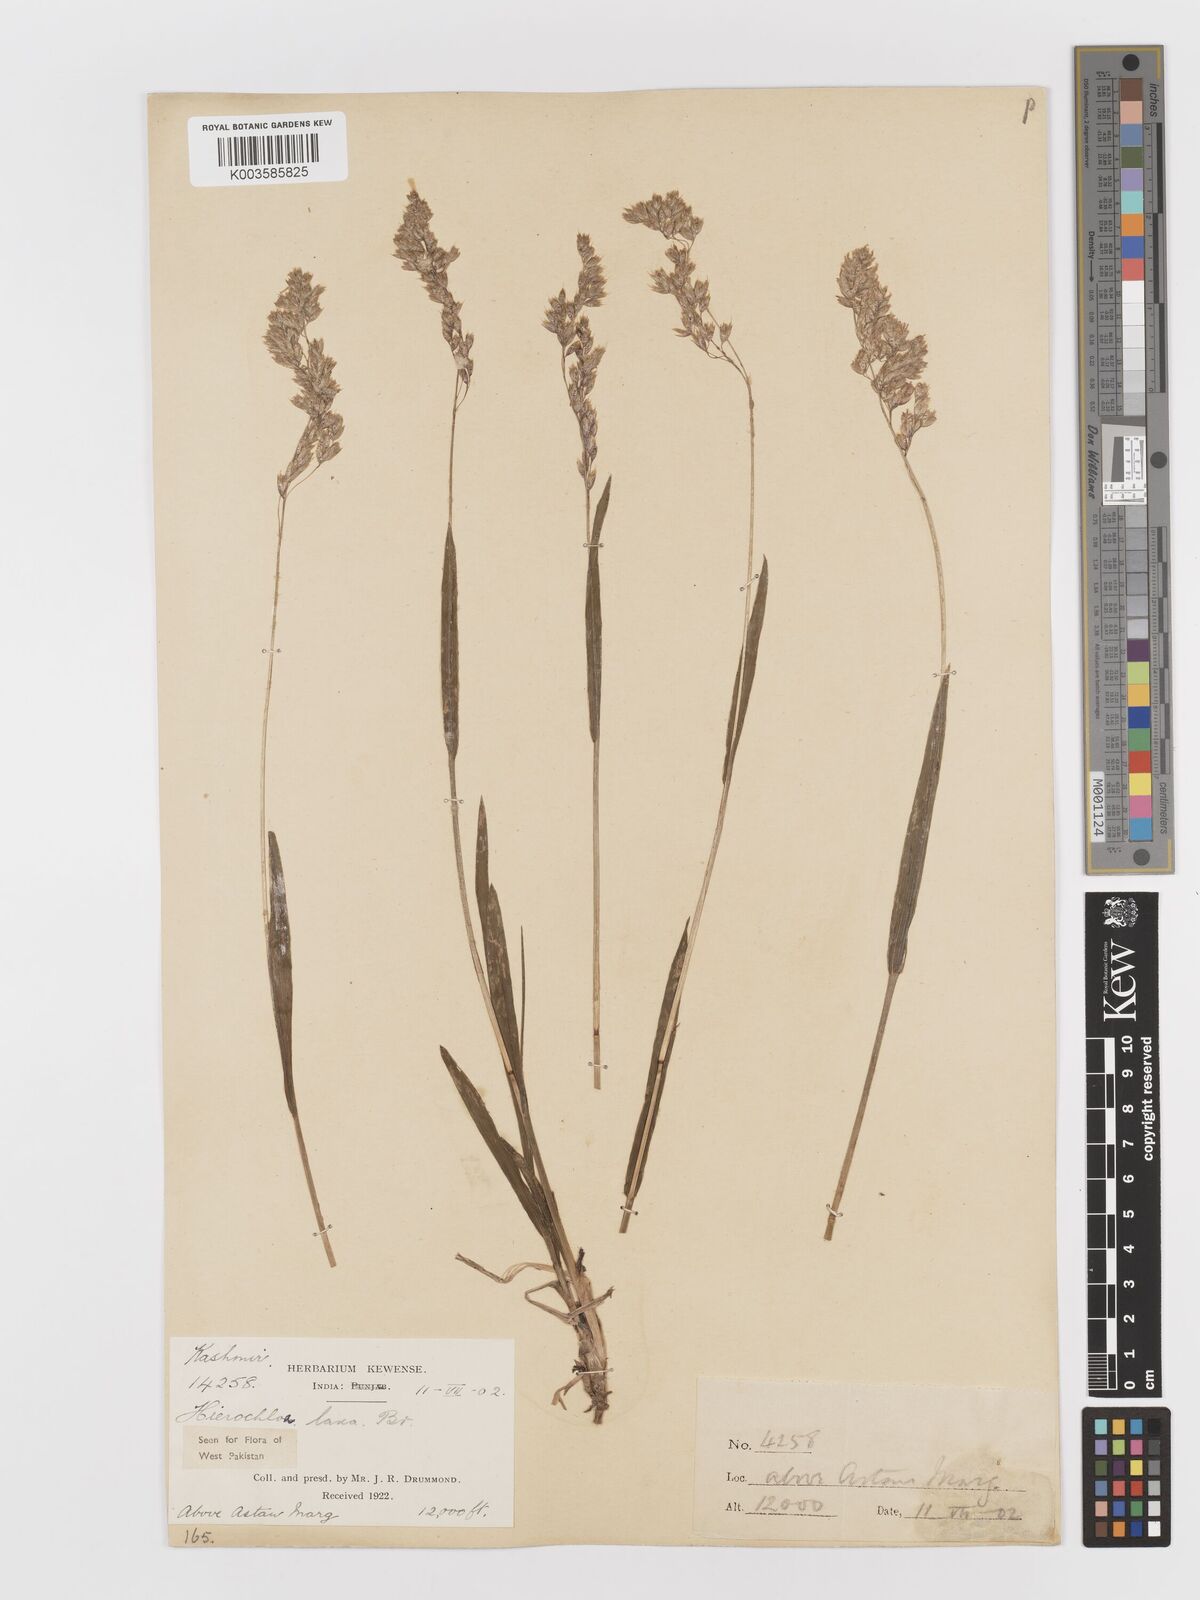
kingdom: Plantae
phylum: Tracheophyta
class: Liliopsida
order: Poales
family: Poaceae
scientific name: Poaceae
